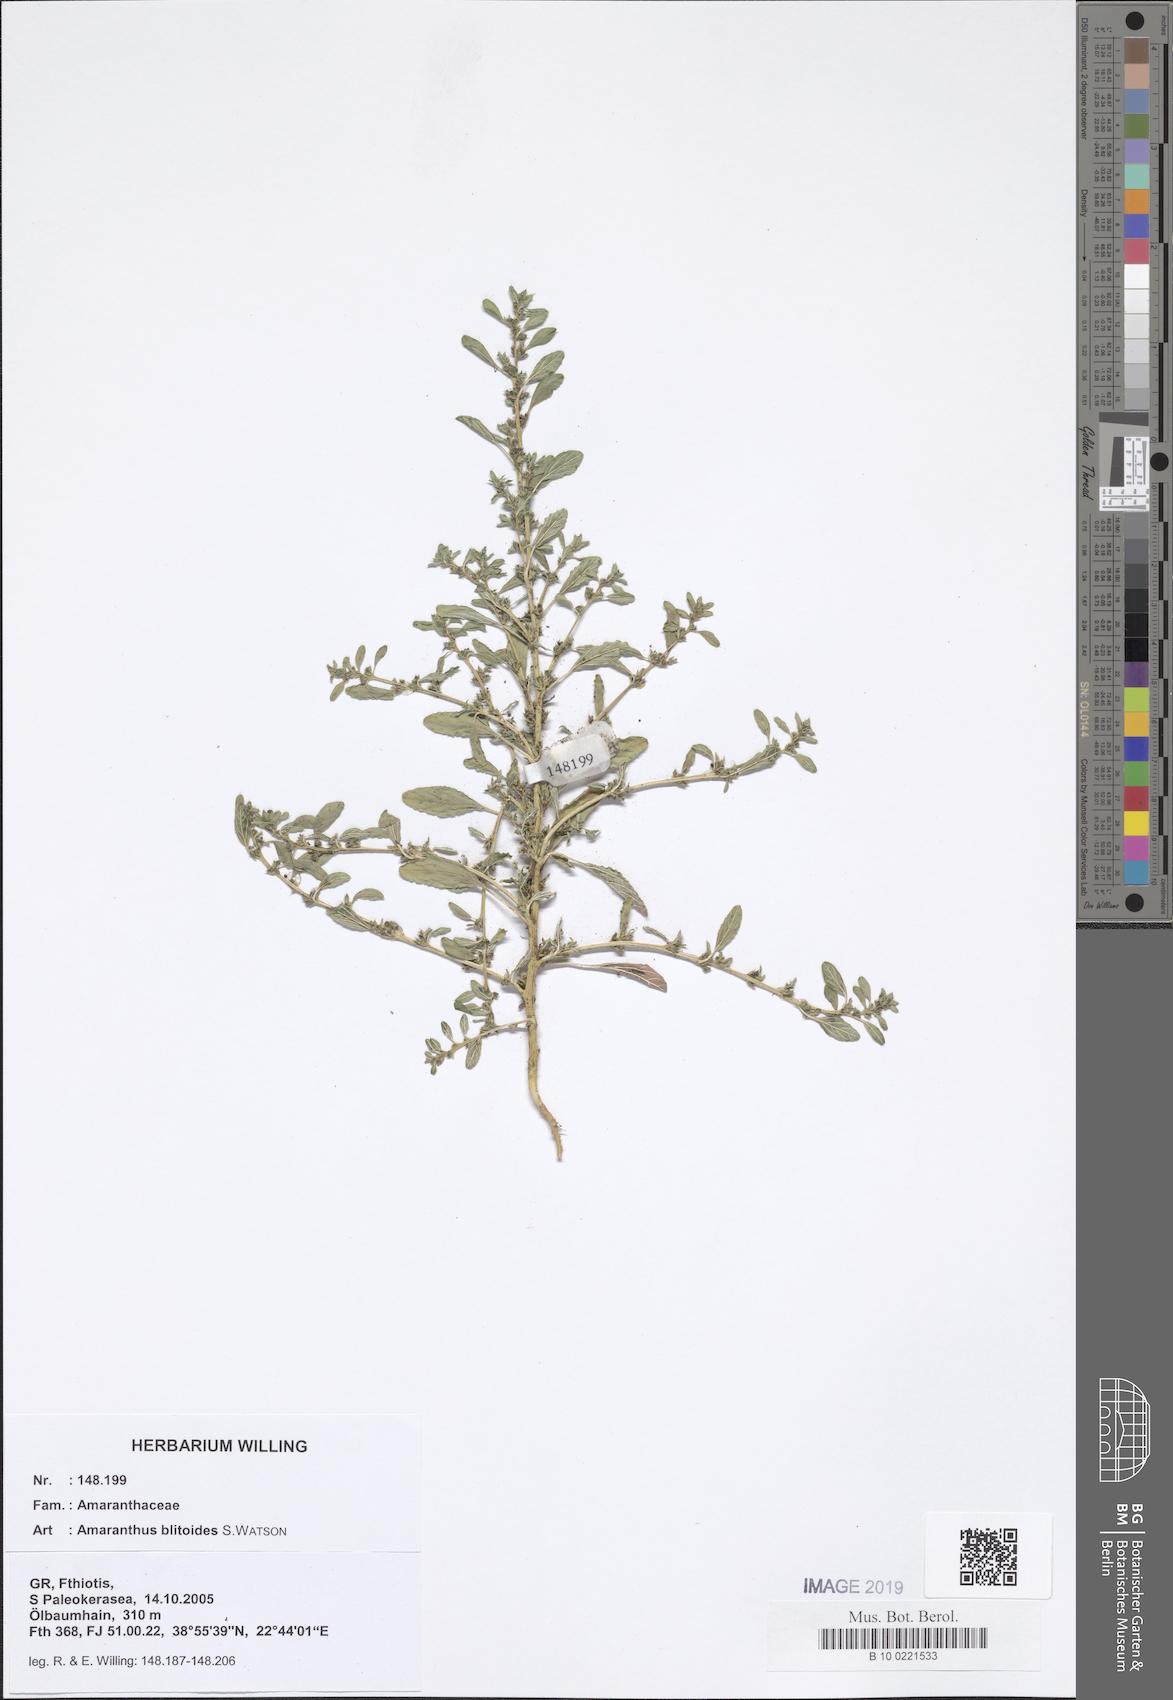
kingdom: Plantae
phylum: Tracheophyta
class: Magnoliopsida
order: Caryophyllales
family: Amaranthaceae
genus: Amaranthus
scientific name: Amaranthus blitoides
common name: Prostrate pigweed
